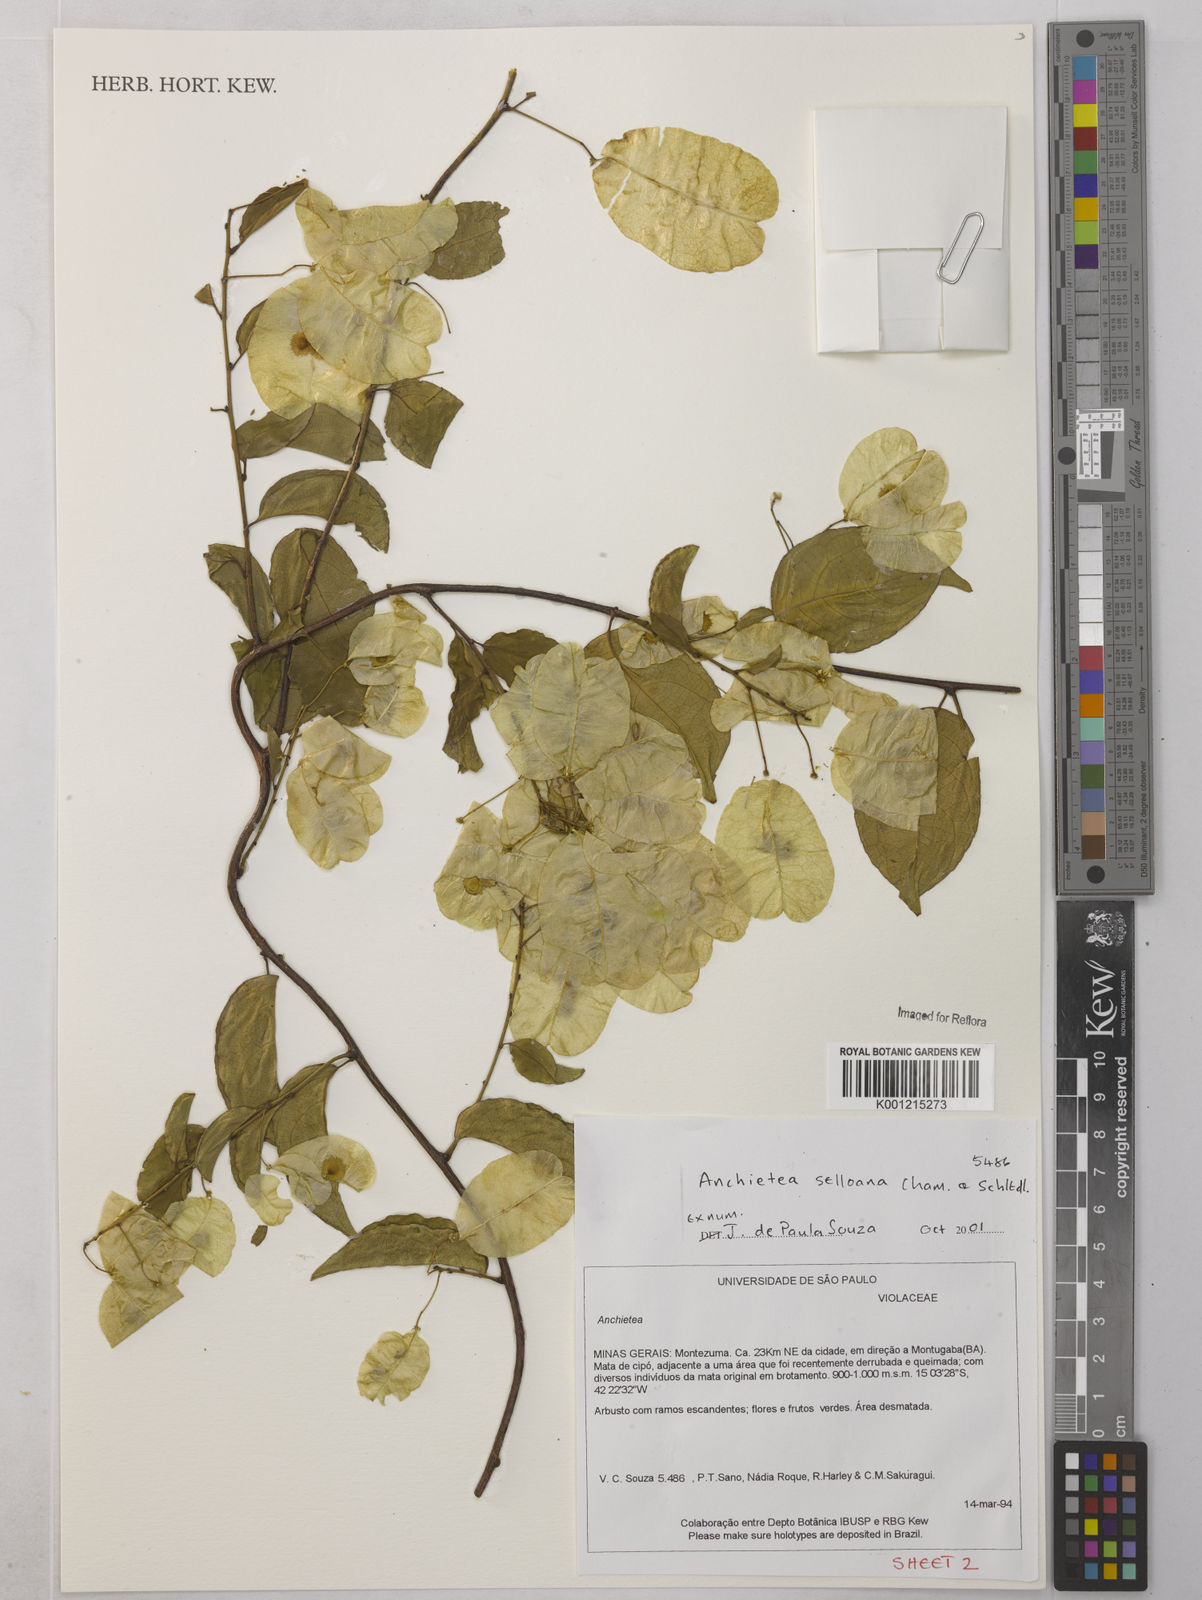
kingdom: Plantae
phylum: Tracheophyta
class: Magnoliopsida
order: Malpighiales
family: Violaceae
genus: Anchietea
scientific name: Anchietea sellowiana
